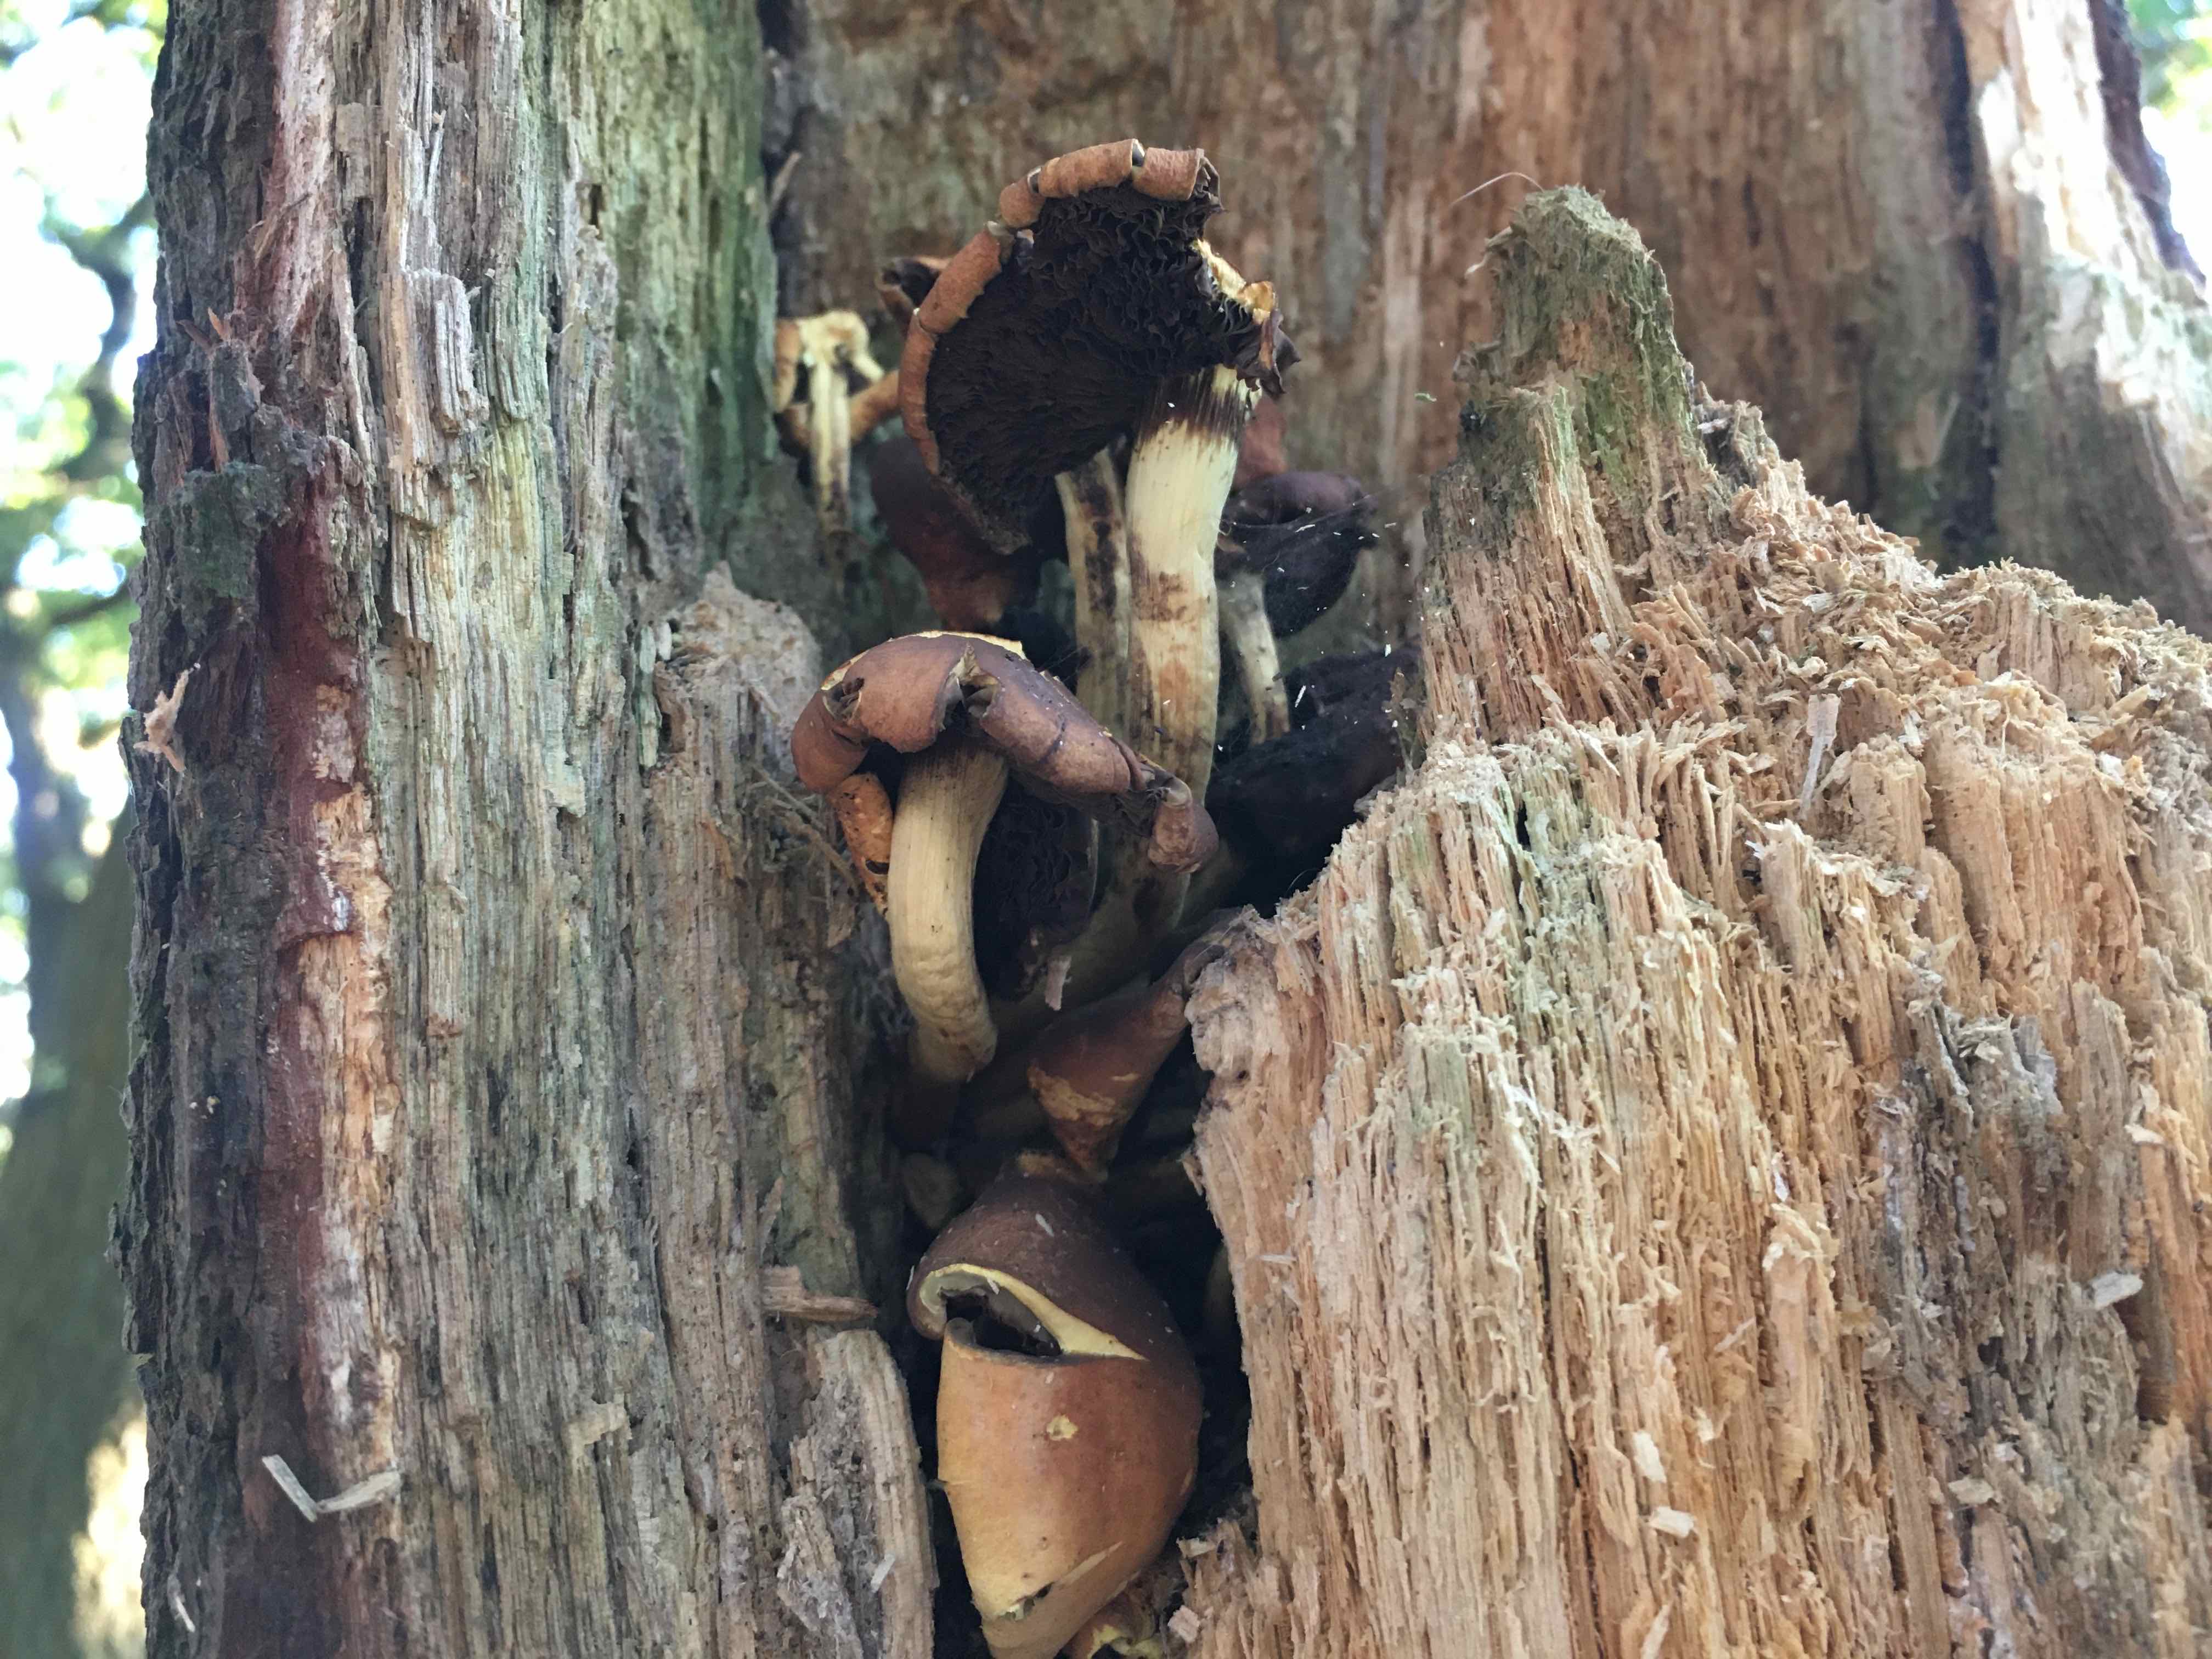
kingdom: Fungi
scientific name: Fungi
